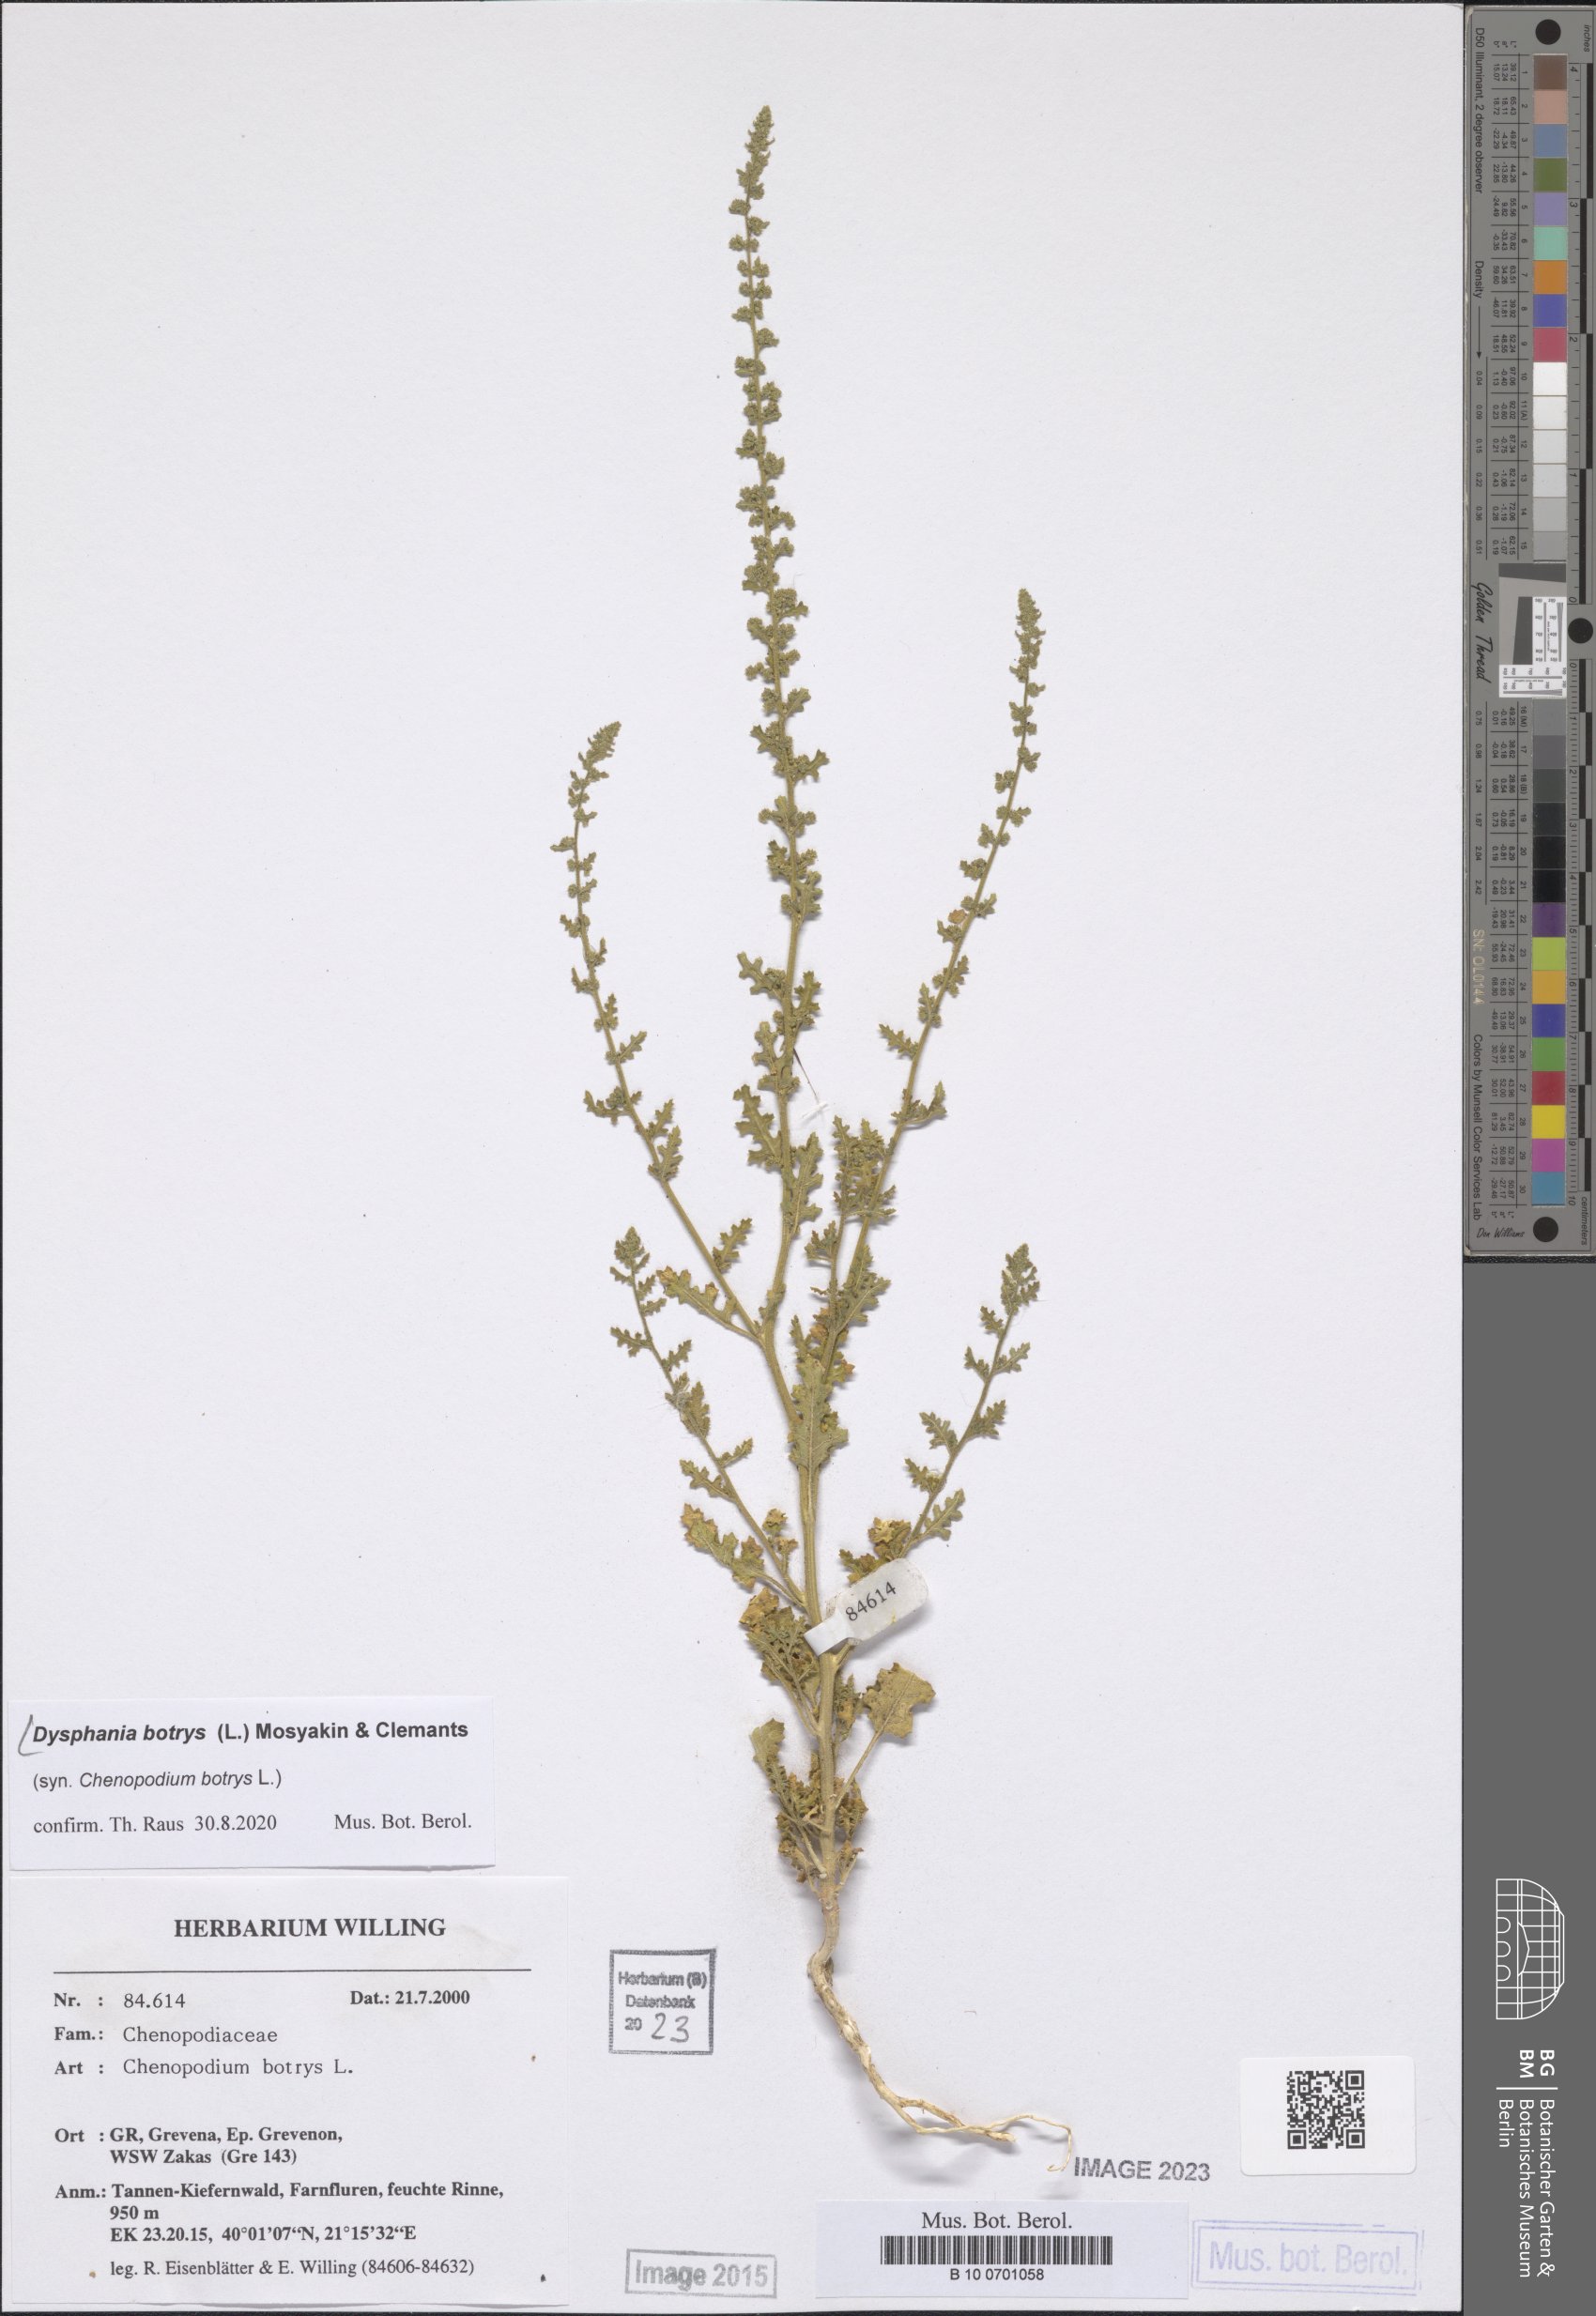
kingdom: Plantae
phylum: Tracheophyta
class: Magnoliopsida
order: Caryophyllales
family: Amaranthaceae
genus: Dysphania
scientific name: Dysphania botrys
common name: Feather-geranium
